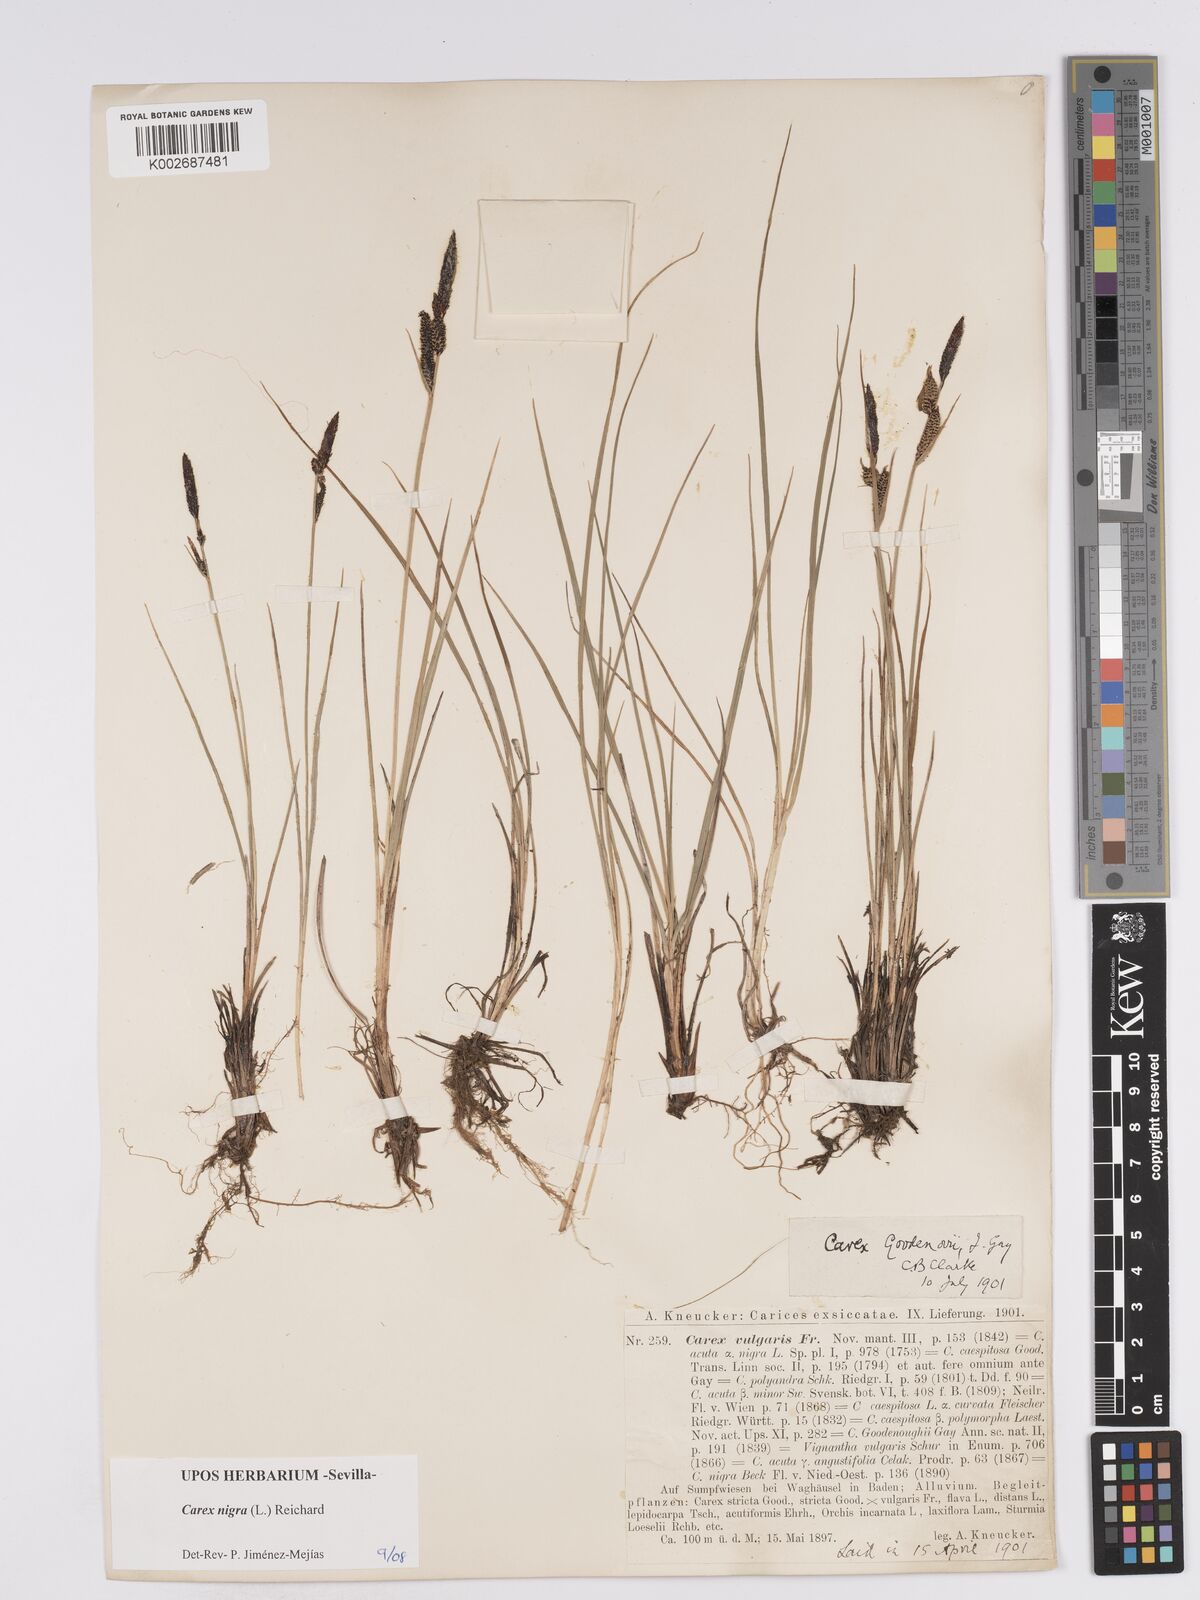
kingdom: Plantae
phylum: Tracheophyta
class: Liliopsida
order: Poales
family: Cyperaceae
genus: Carex
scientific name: Carex nigra
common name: Common sedge
